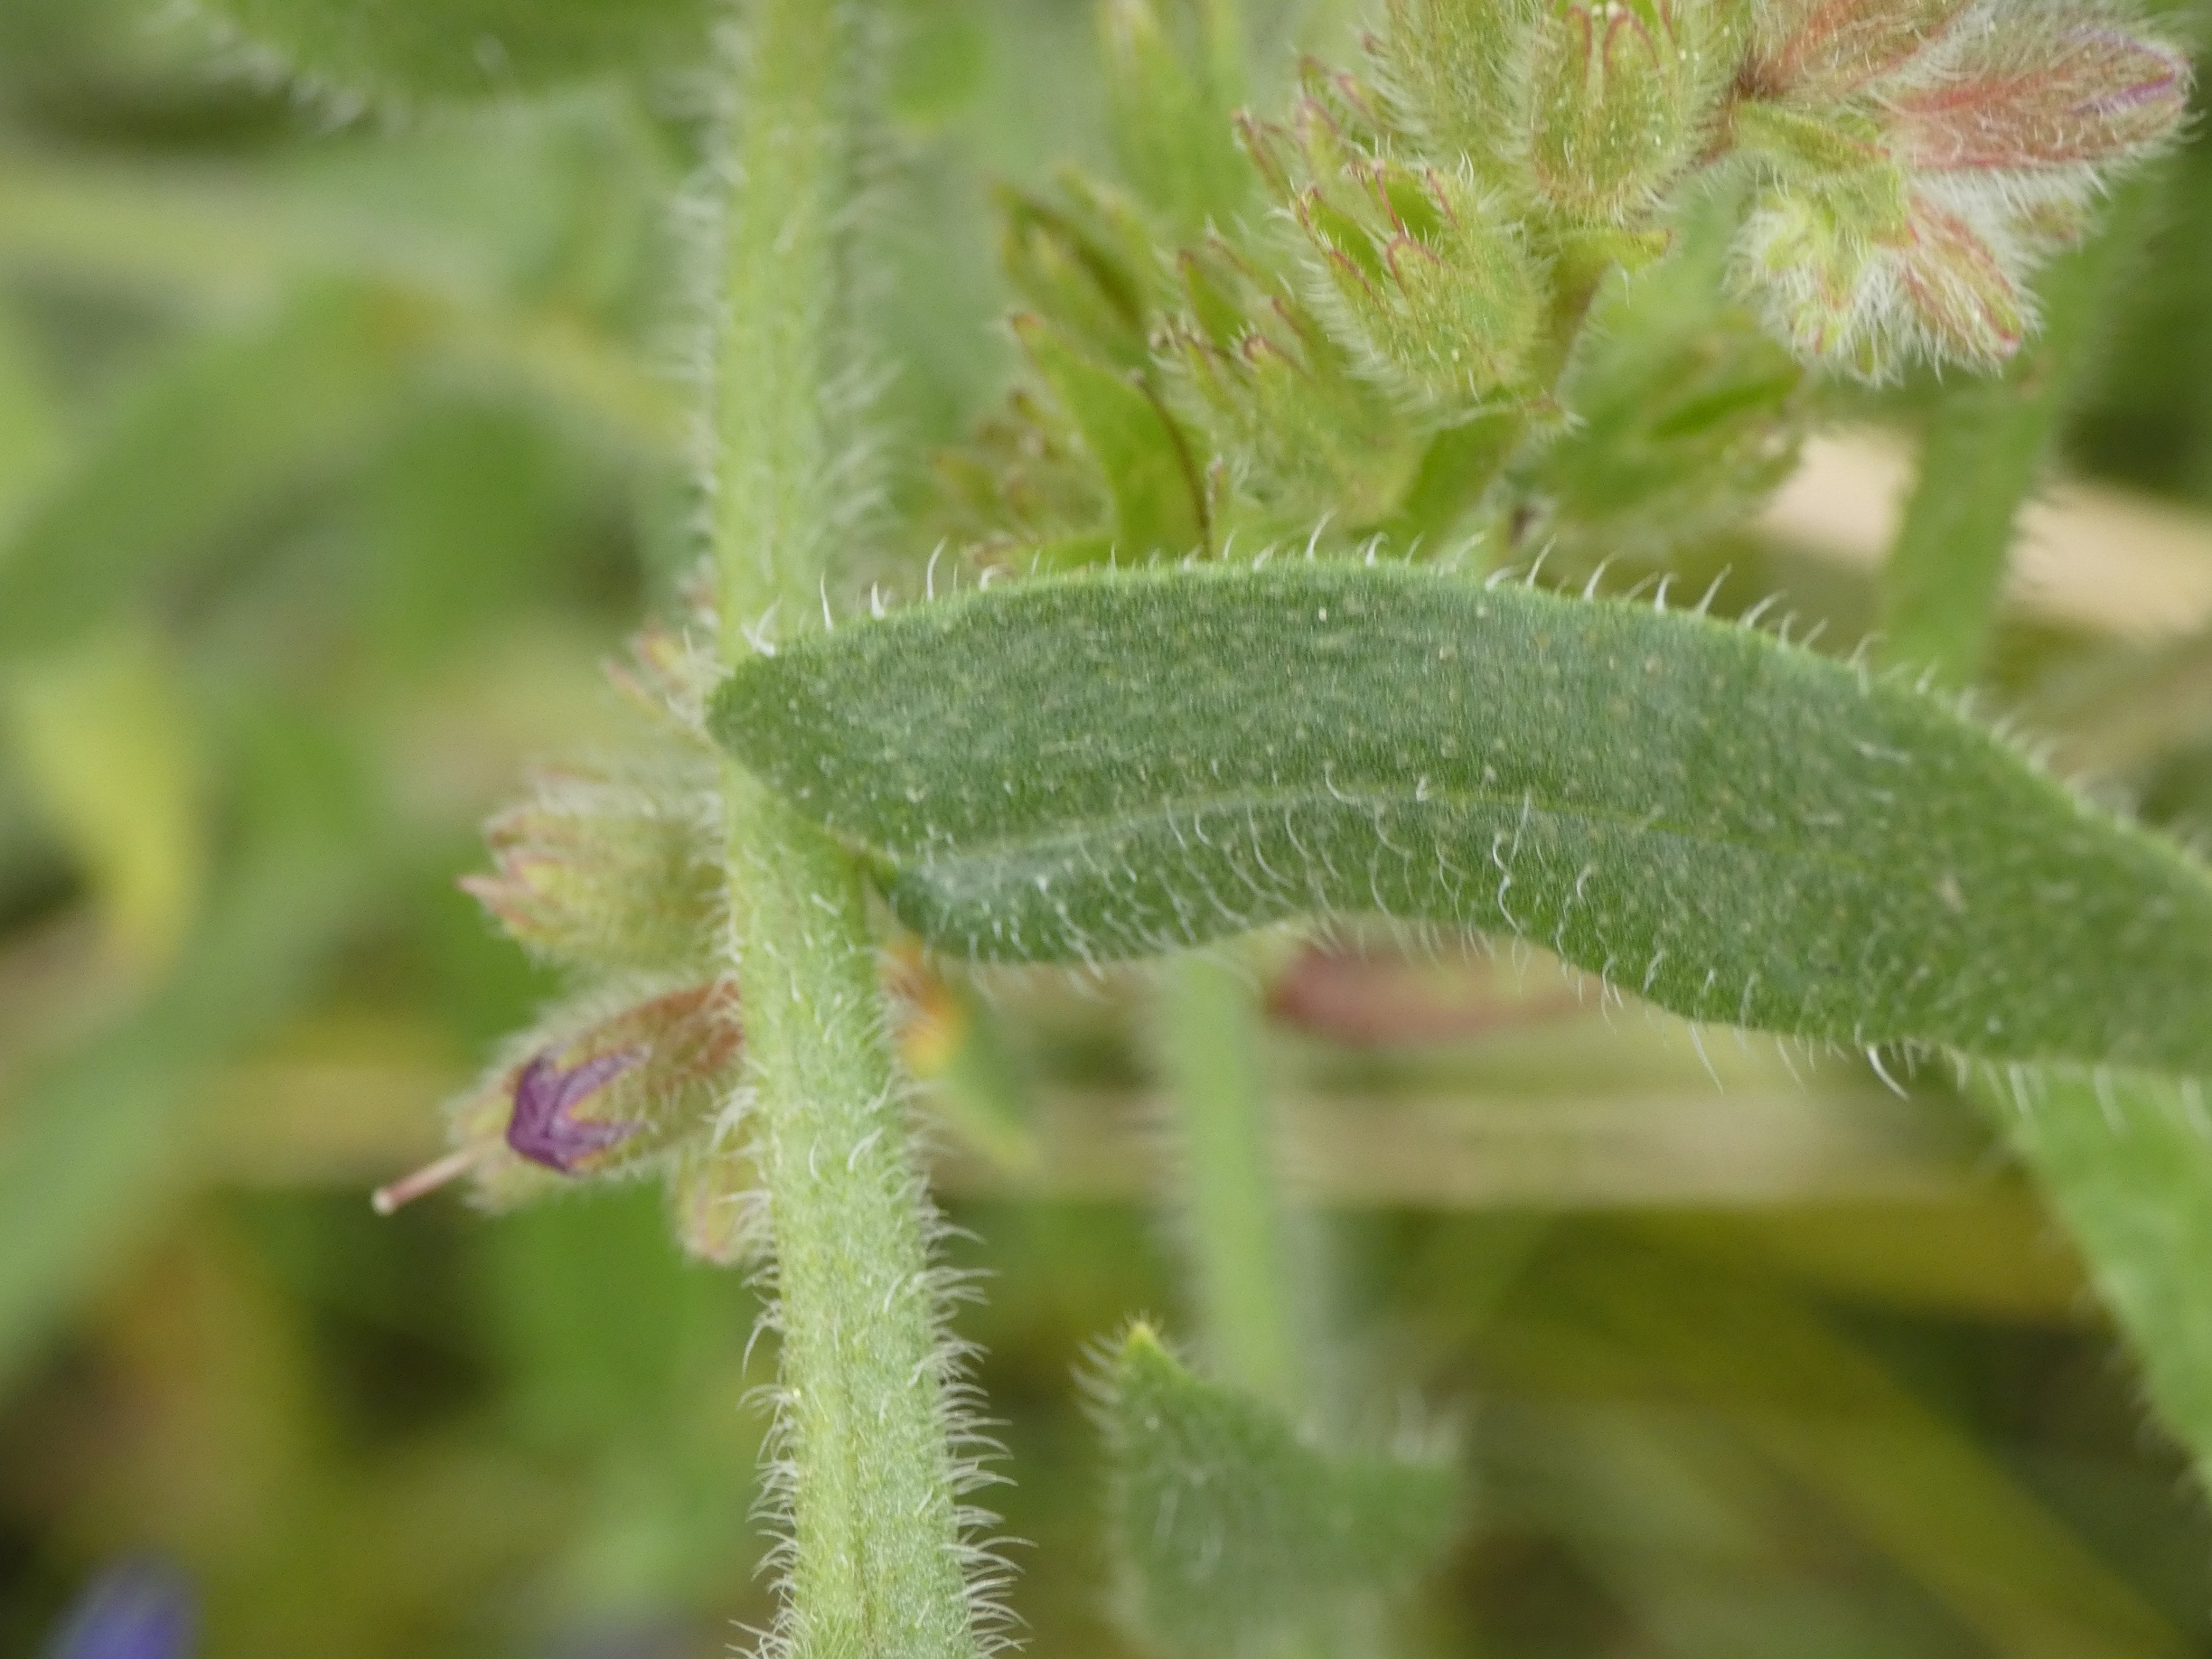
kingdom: Plantae
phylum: Tracheophyta
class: Magnoliopsida
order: Boraginales
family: Boraginaceae
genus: Anchusa
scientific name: Anchusa officinalis
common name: Læge-oksetunge
